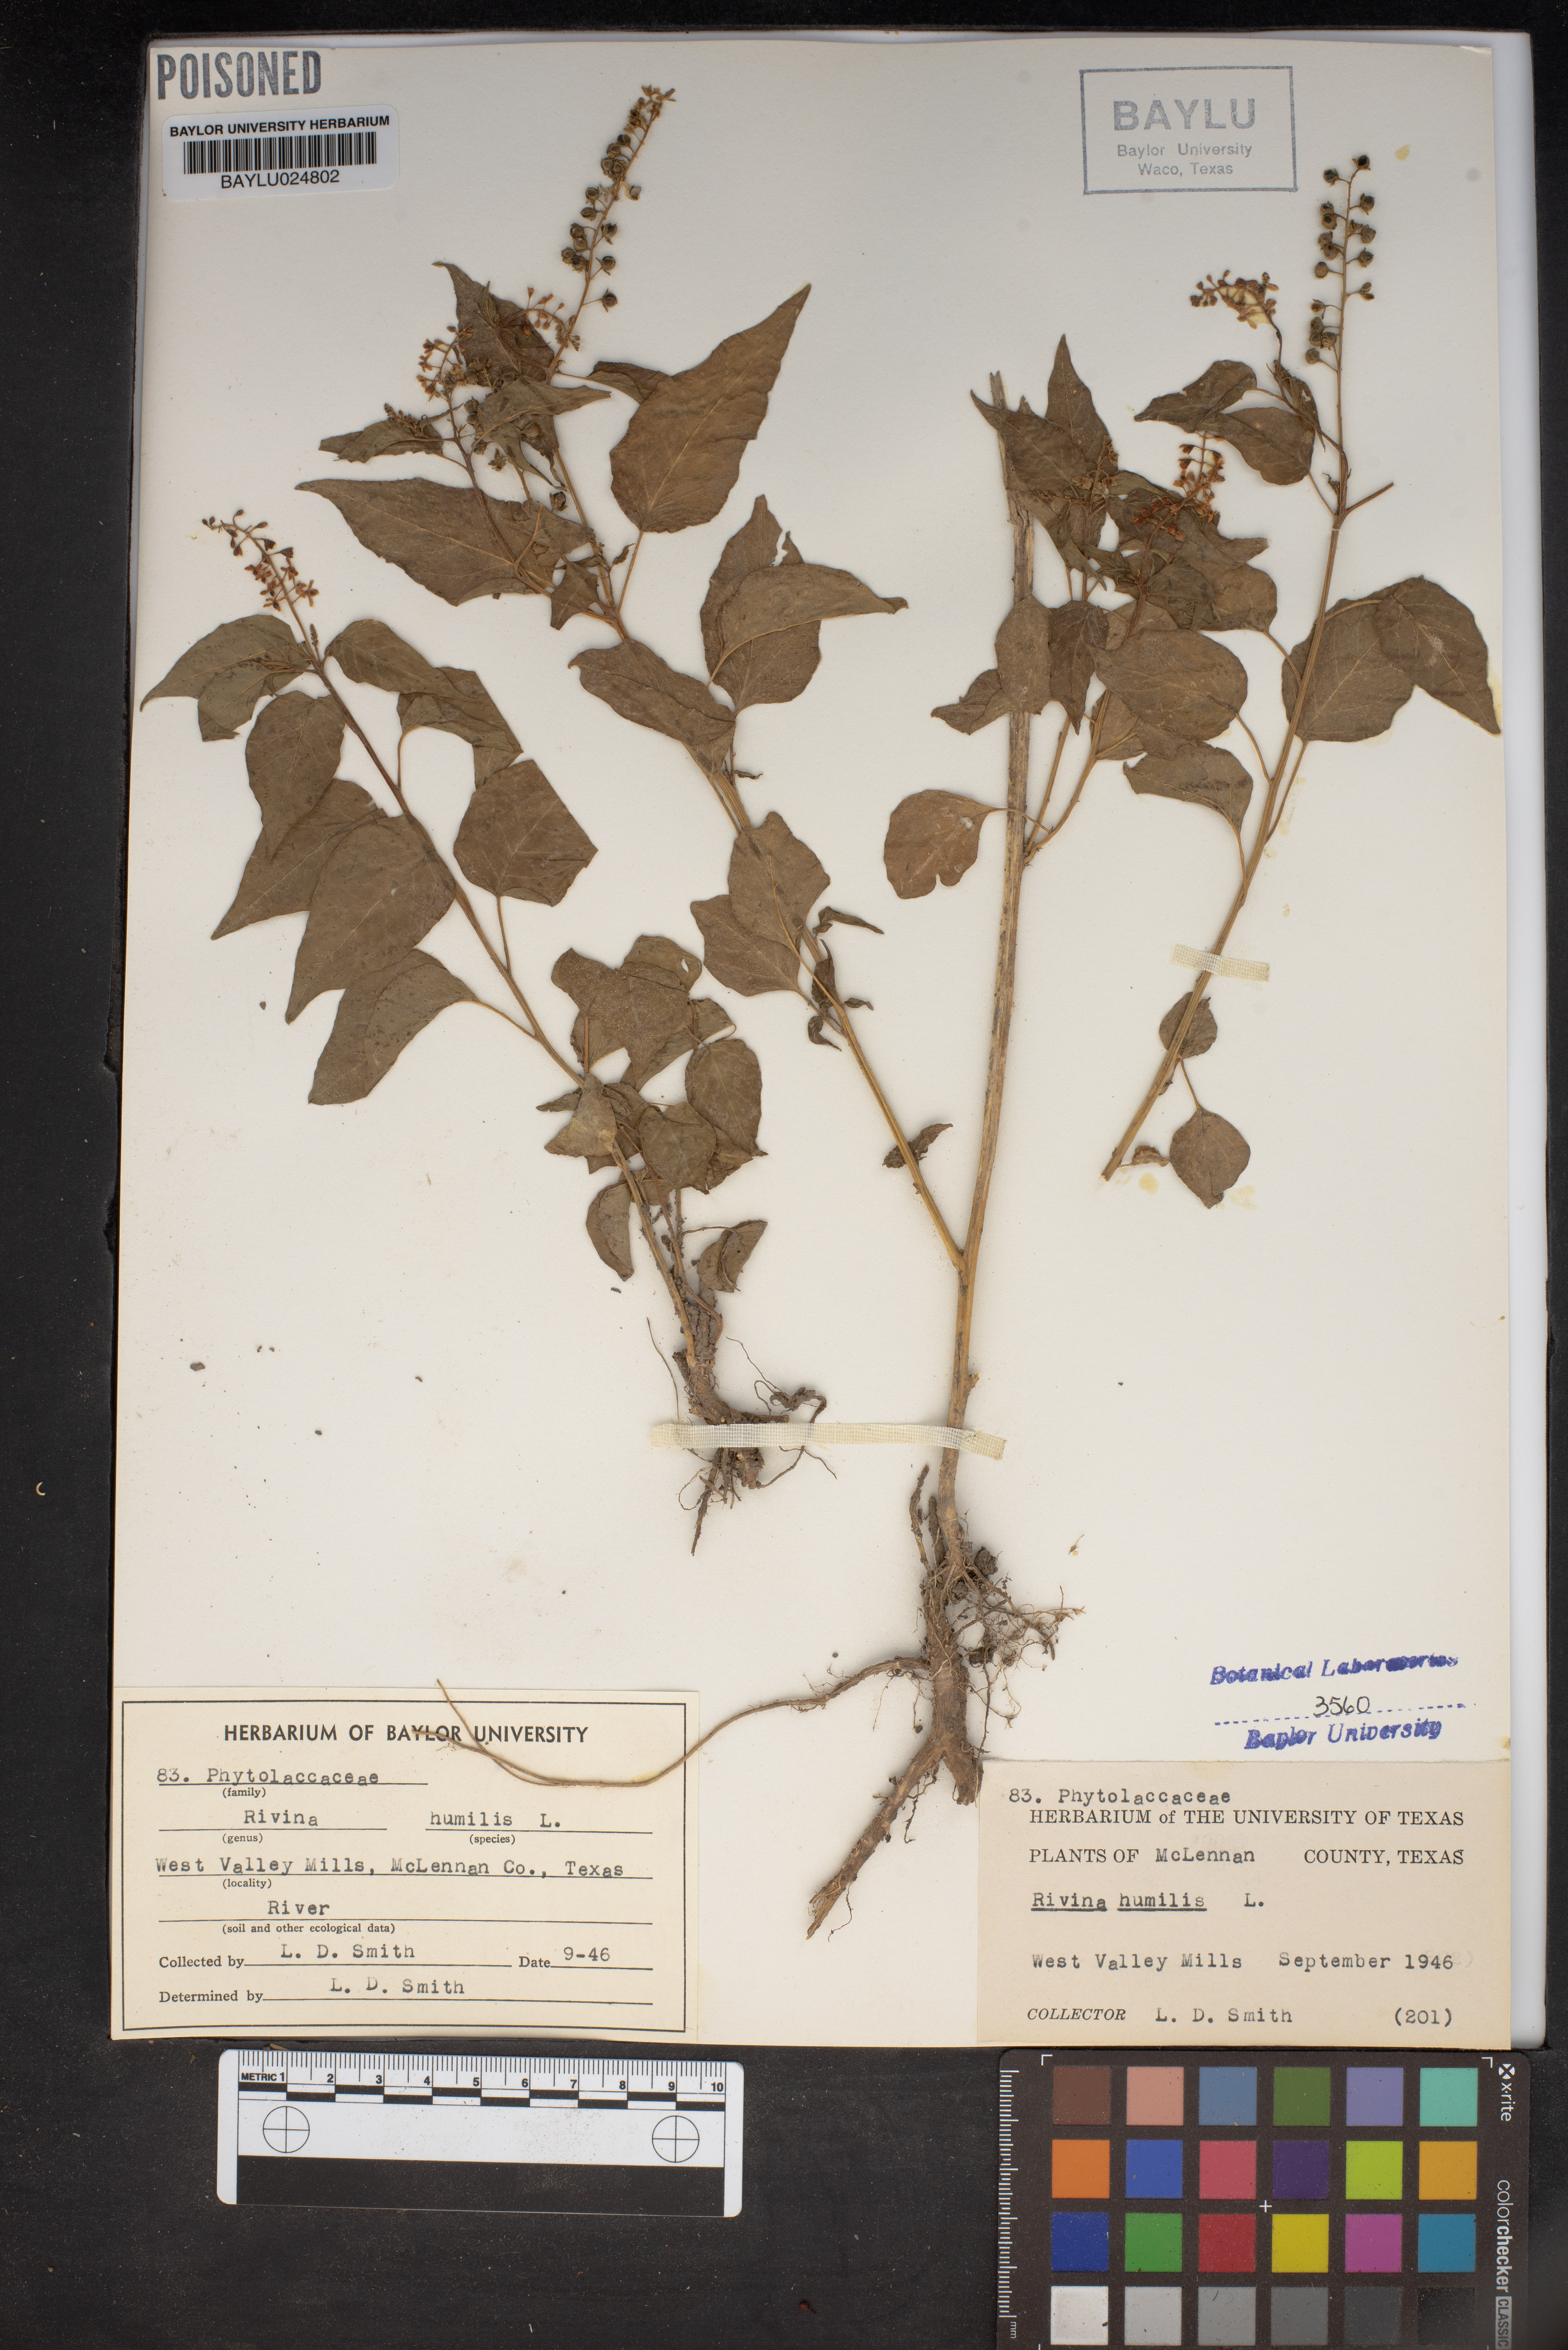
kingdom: Plantae
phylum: Tracheophyta
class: Magnoliopsida
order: Caryophyllales
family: Phytolaccaceae
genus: Rivina
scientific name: Rivina humilis
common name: Rougeplant
